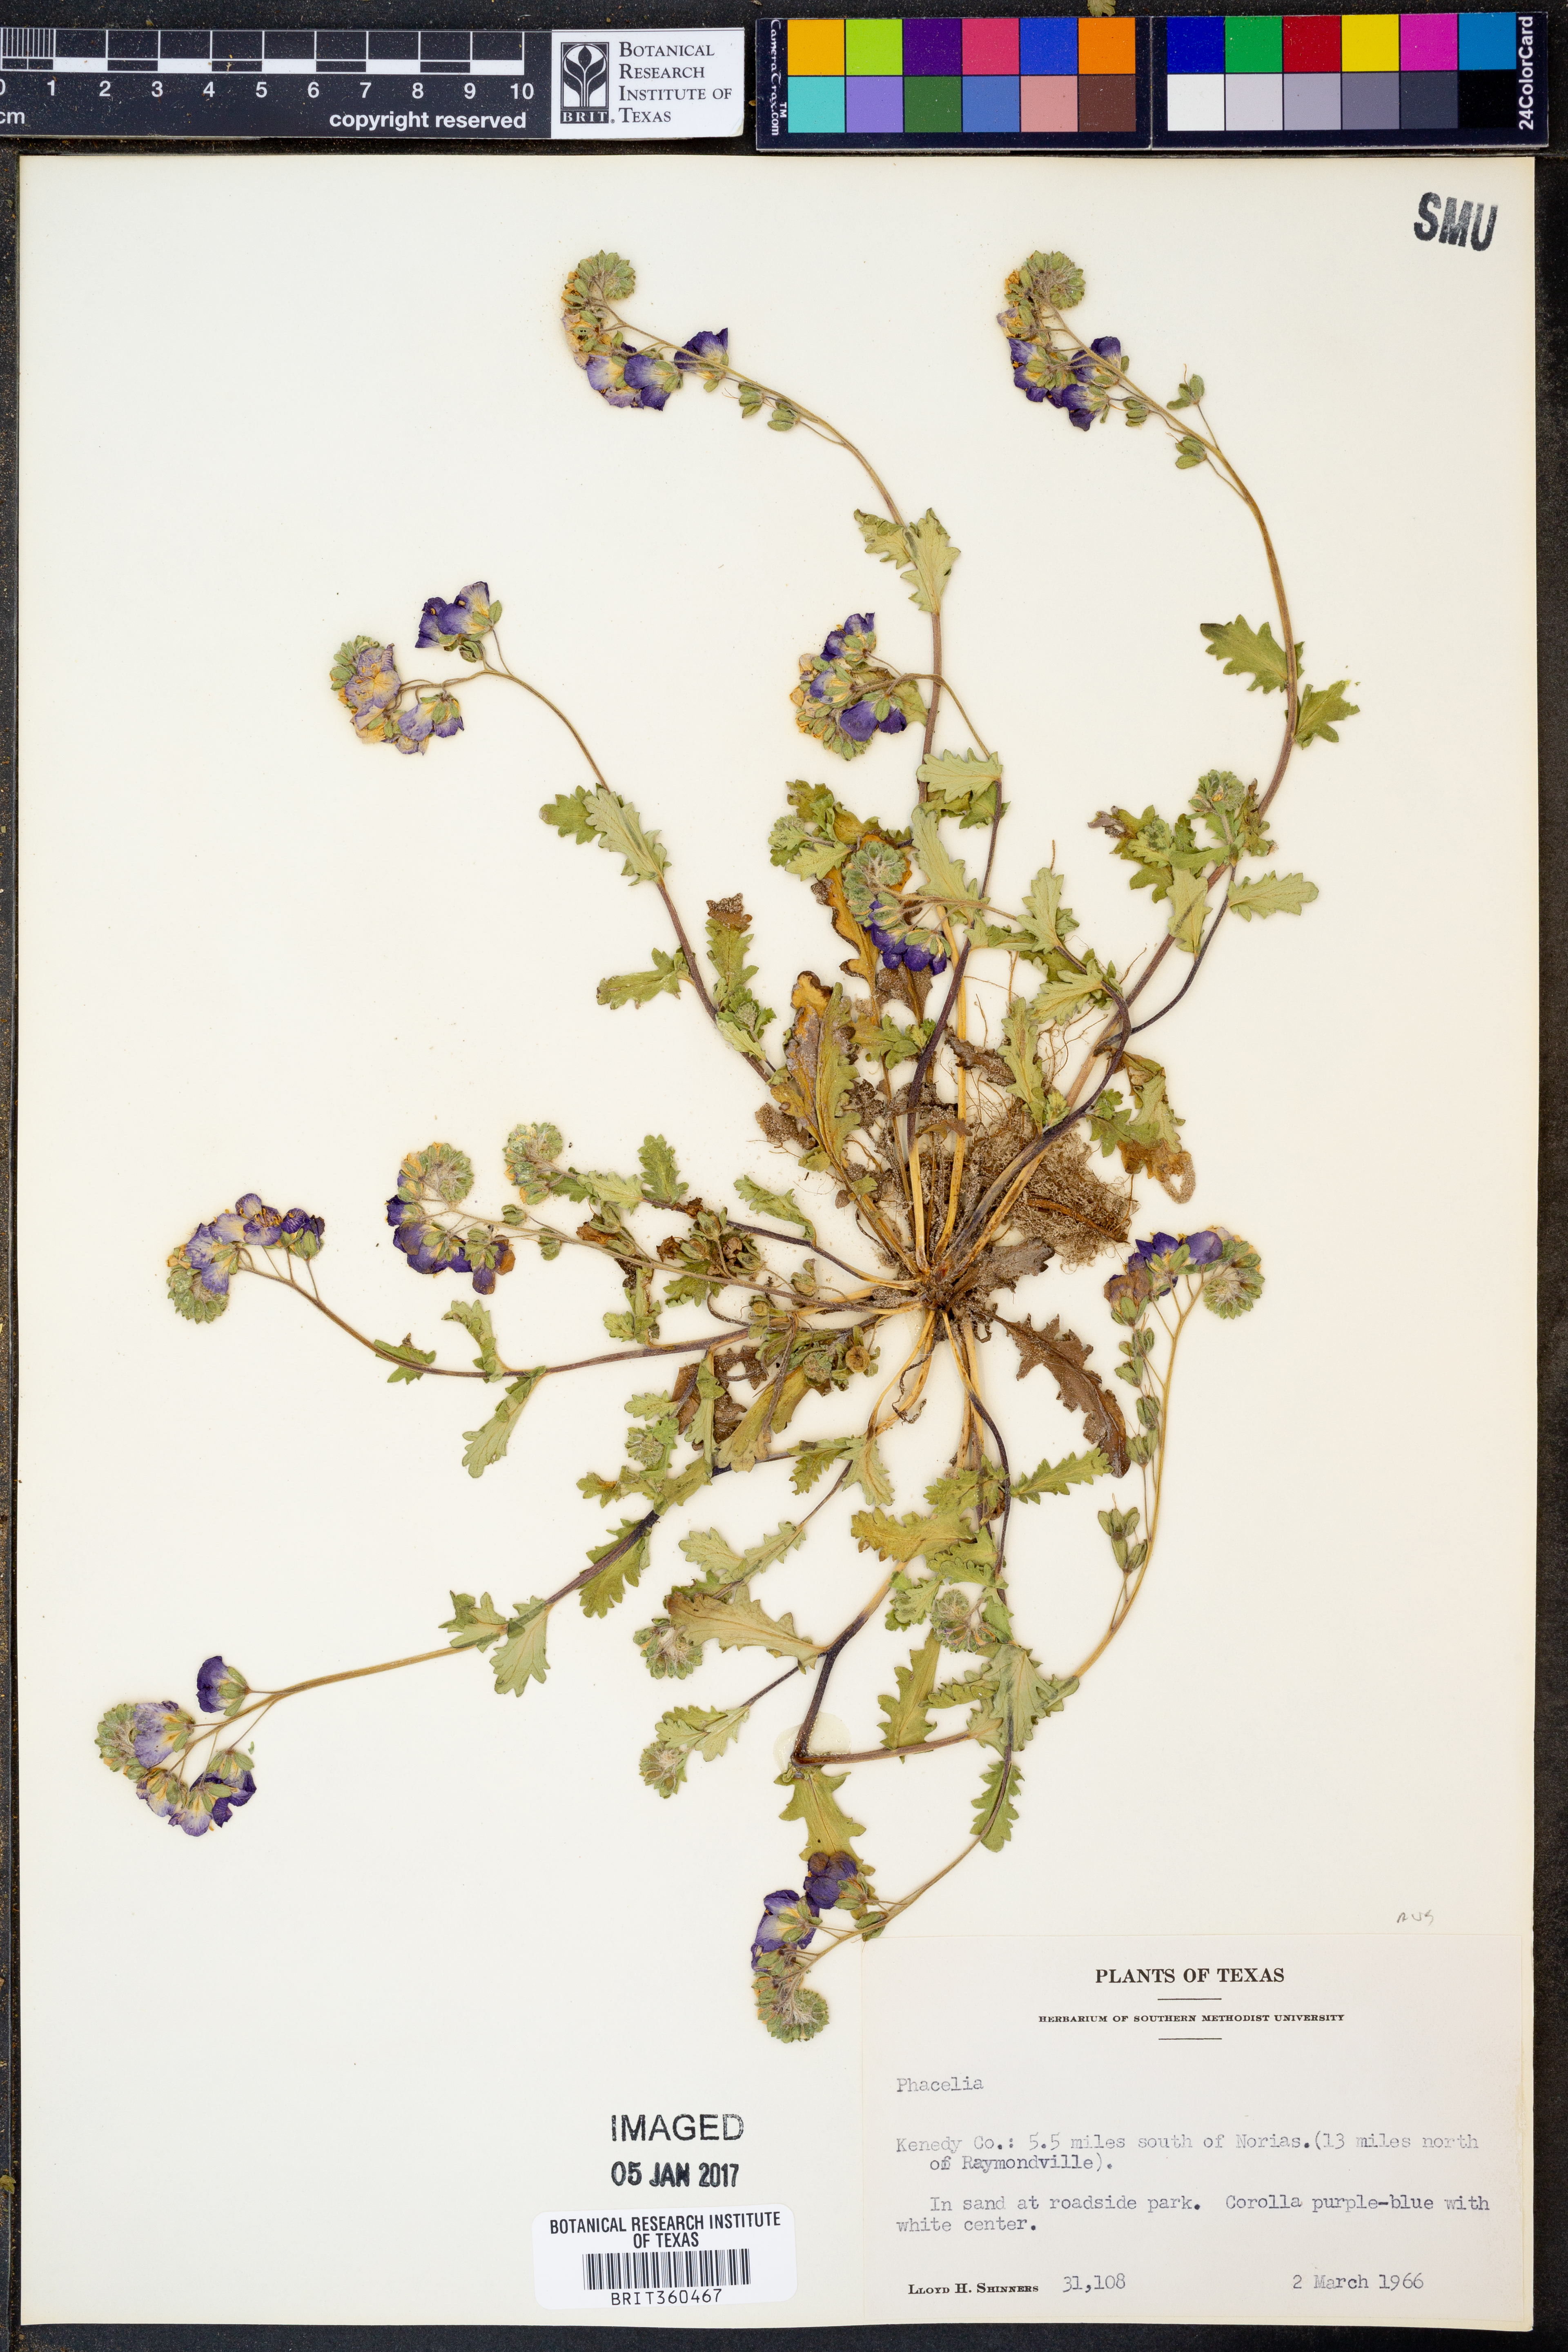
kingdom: Plantae
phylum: Tracheophyta
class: Magnoliopsida
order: Boraginales
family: Hydrophyllaceae
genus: Phacelia
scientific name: Phacelia
